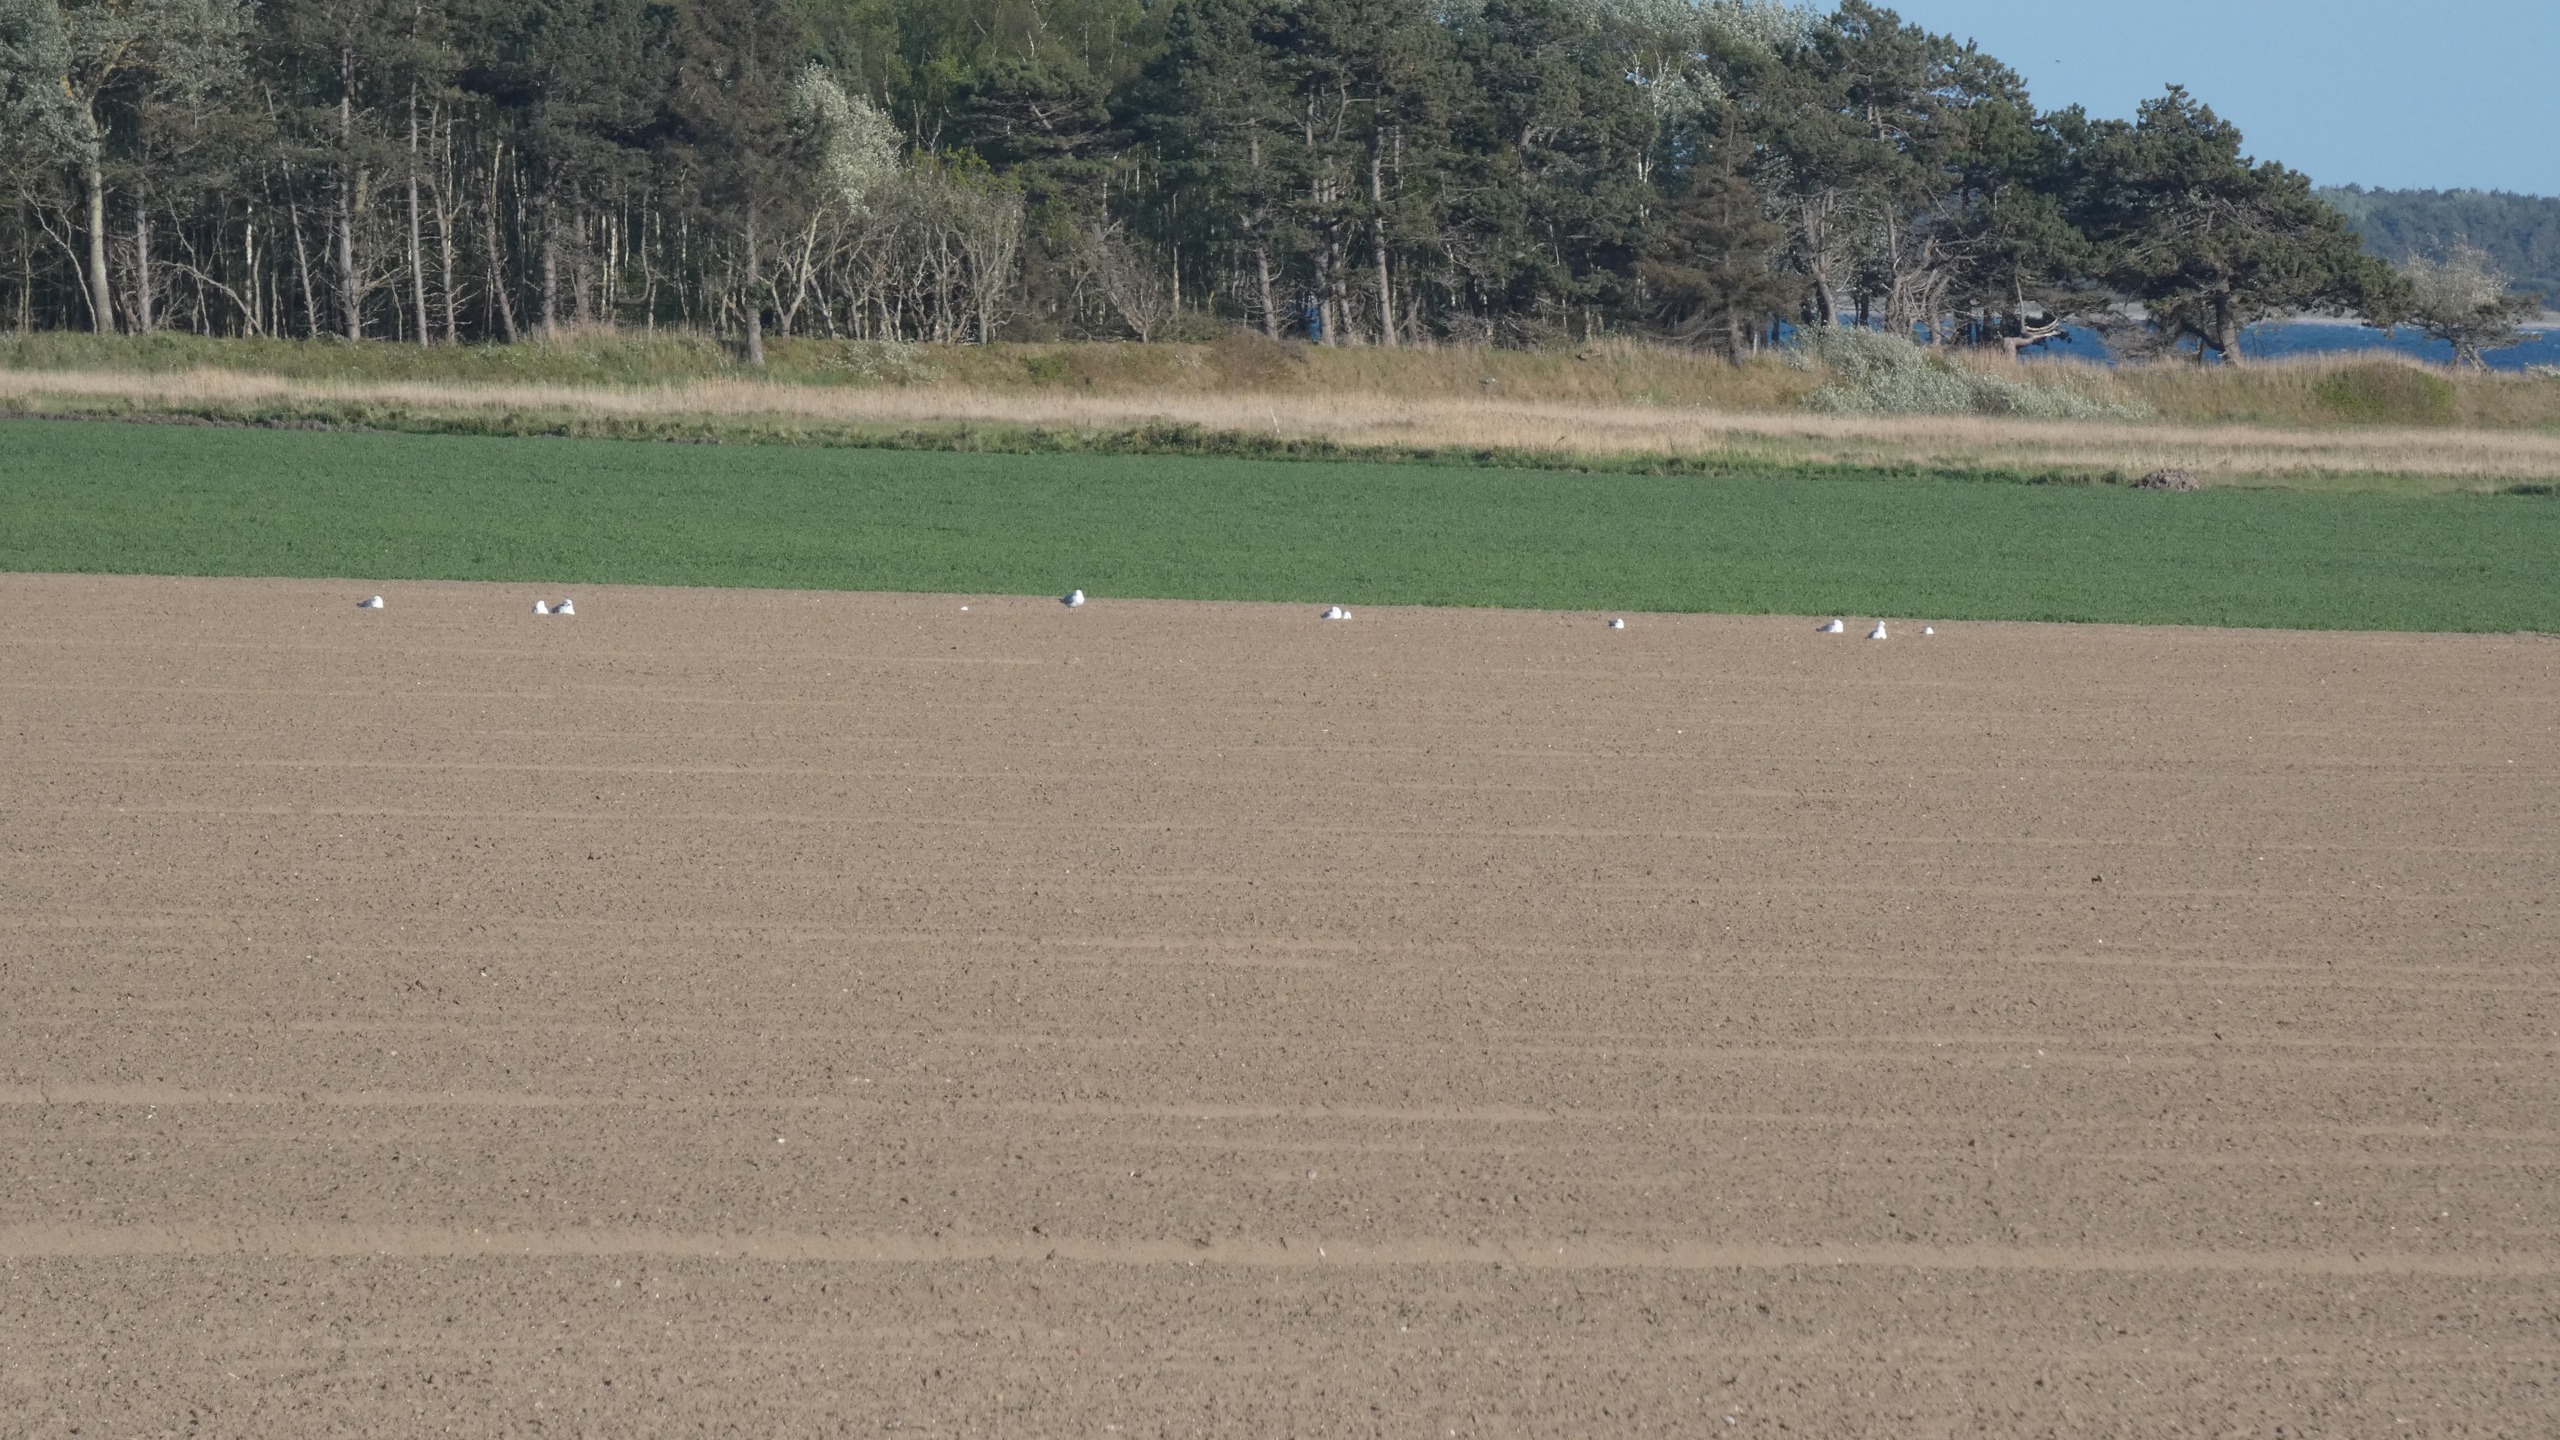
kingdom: Animalia
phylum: Chordata
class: Aves
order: Charadriiformes
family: Laridae
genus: Larus
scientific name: Larus argentatus
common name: Sølvmåge
